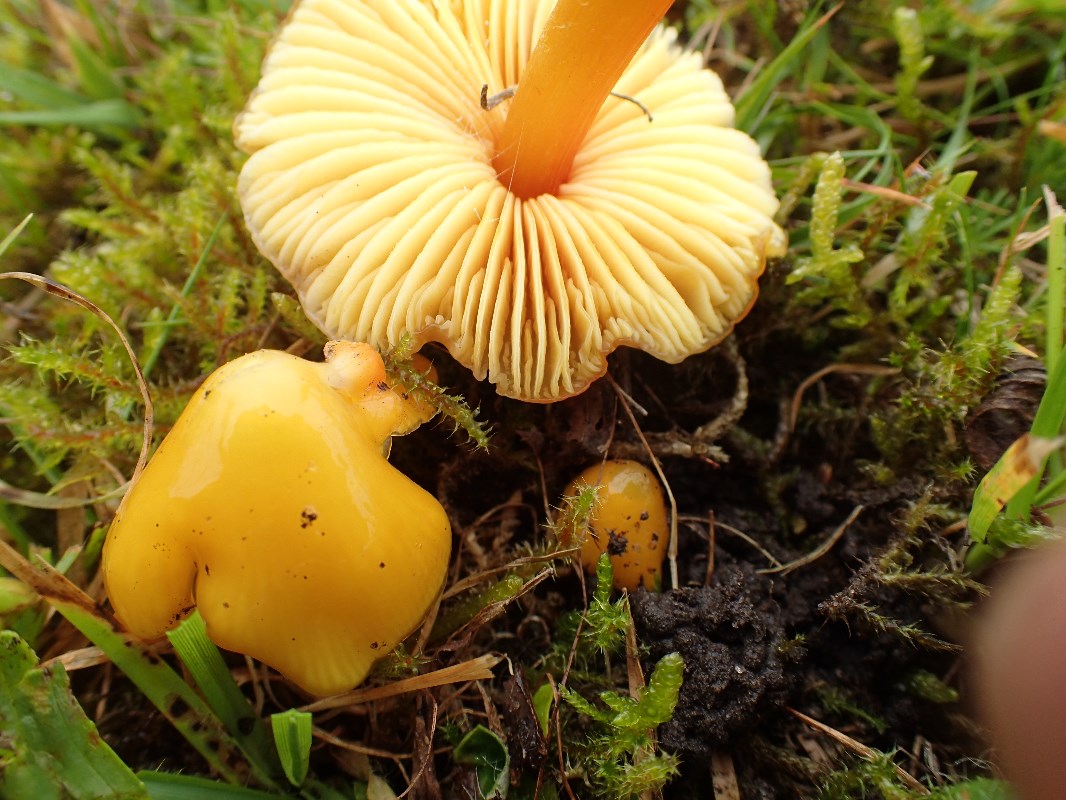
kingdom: Fungi
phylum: Basidiomycota
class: Agaricomycetes
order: Agaricales
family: Hygrophoraceae
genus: Hygrocybe
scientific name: Hygrocybe acutoconica
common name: spidspuklet vokshat
